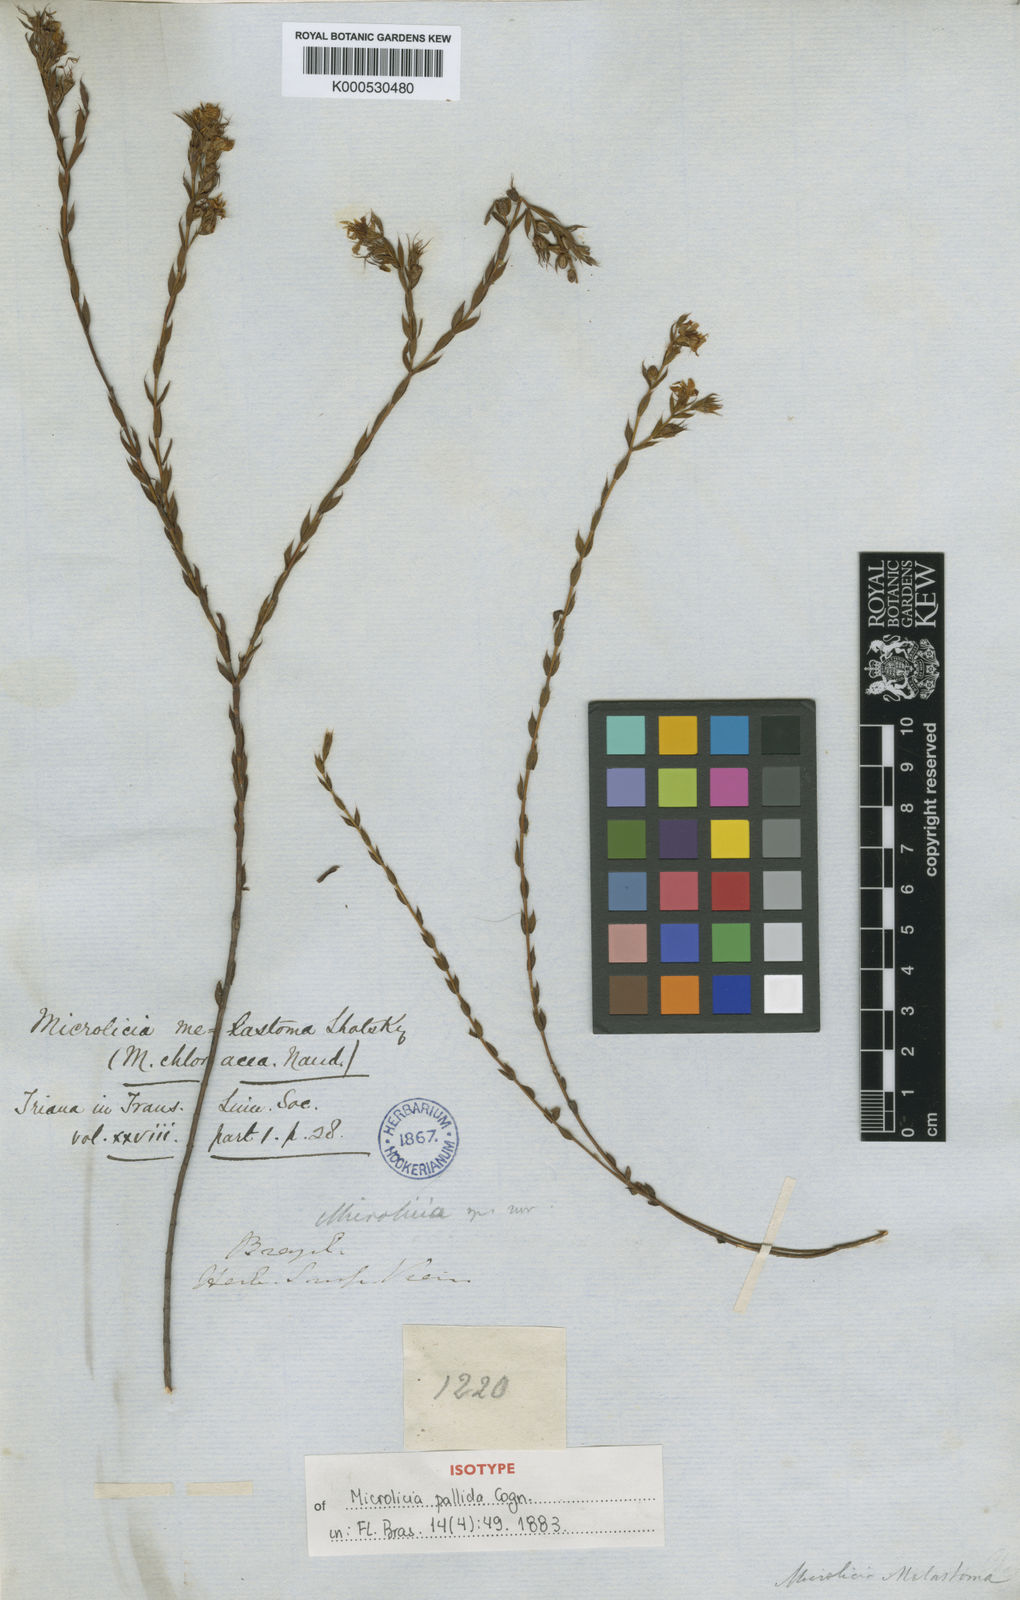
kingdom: Plantae
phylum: Tracheophyta
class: Magnoliopsida
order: Myrtales
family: Melastomataceae
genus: Microlicia
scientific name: Microlicia
